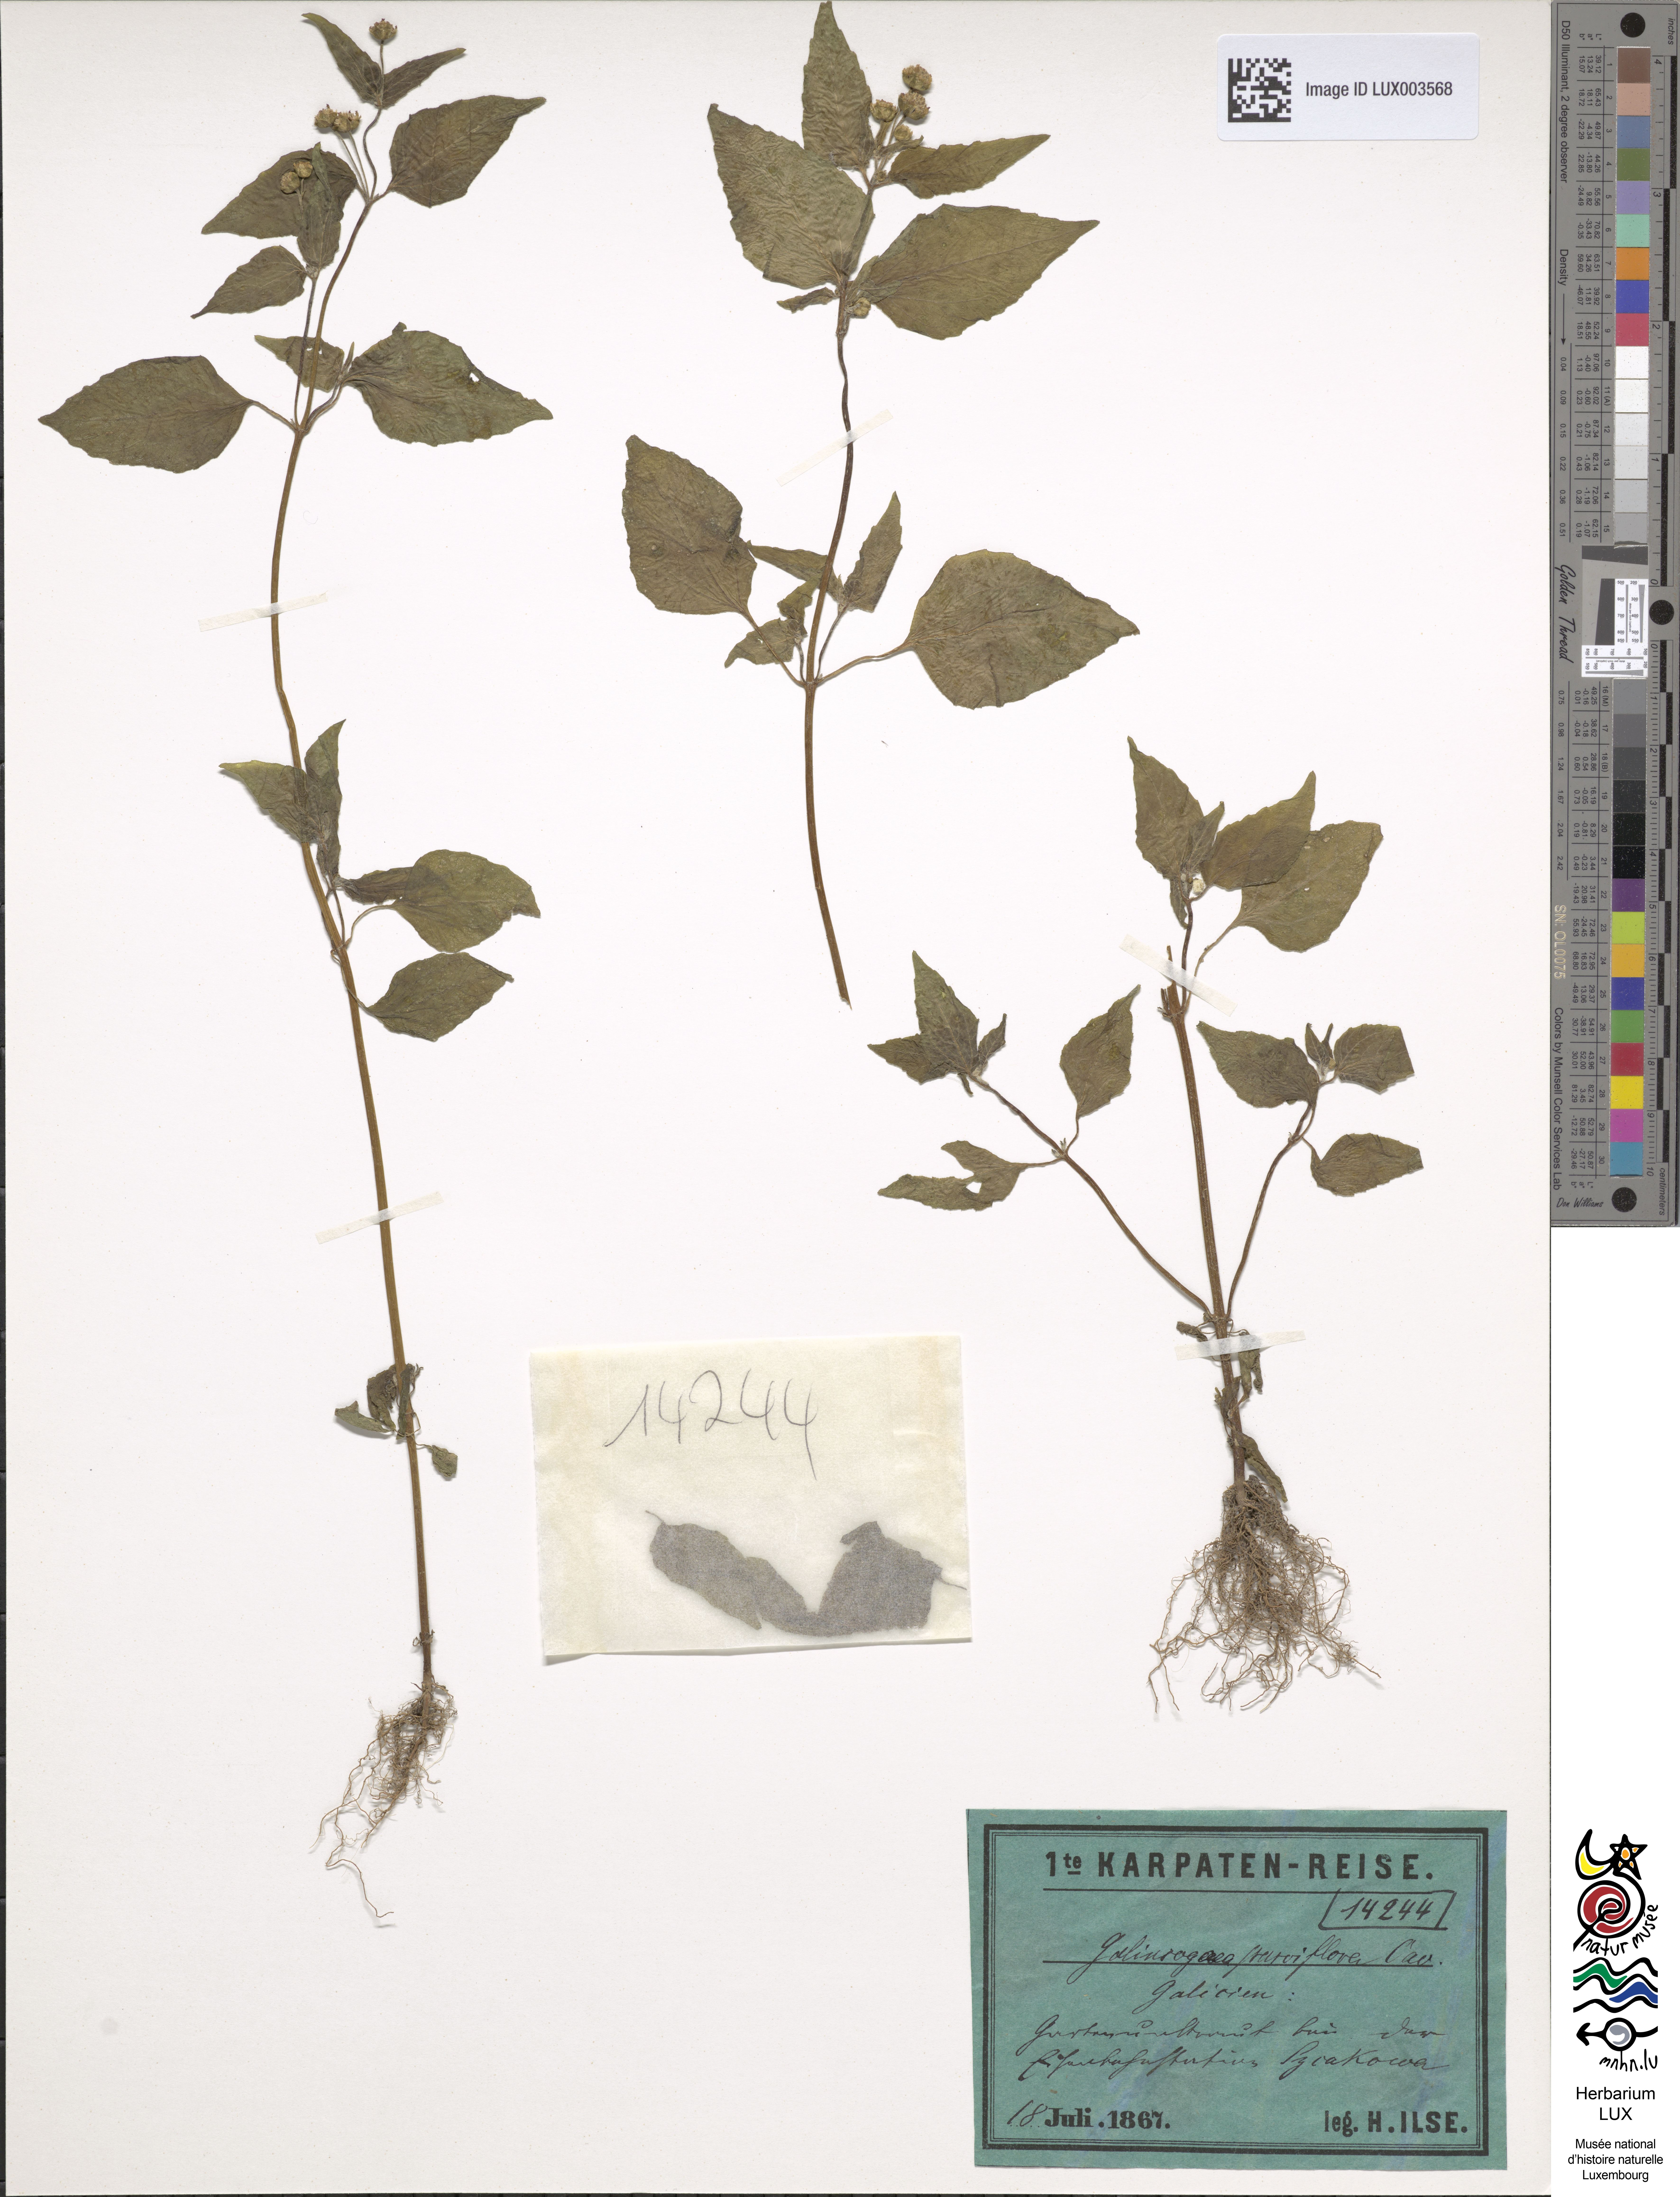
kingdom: Plantae
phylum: Tracheophyta
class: Magnoliopsida
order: Asterales
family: Asteraceae
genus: Galinsoga
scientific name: Galinsoga parviflora
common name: Gallant soldier
